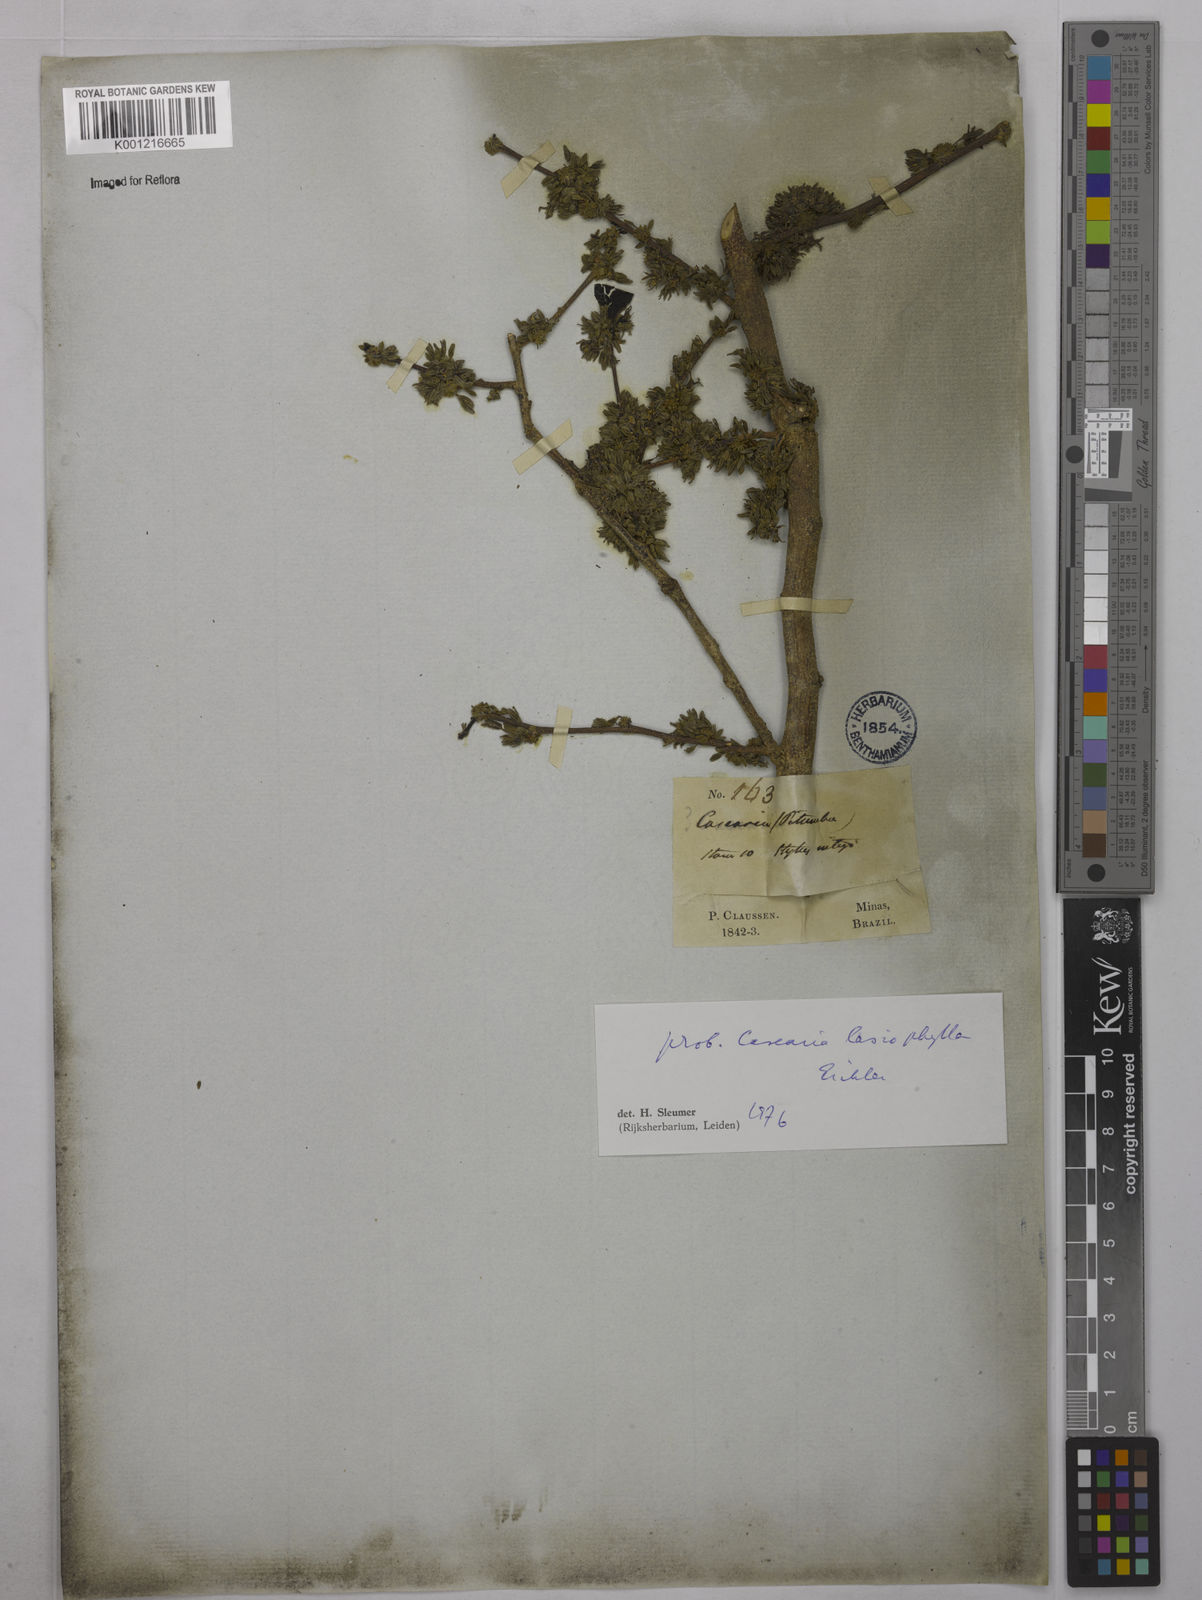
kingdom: Plantae
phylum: Tracheophyta
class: Magnoliopsida
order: Malpighiales
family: Salicaceae
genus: Casearia
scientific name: Casearia lasiophylla
